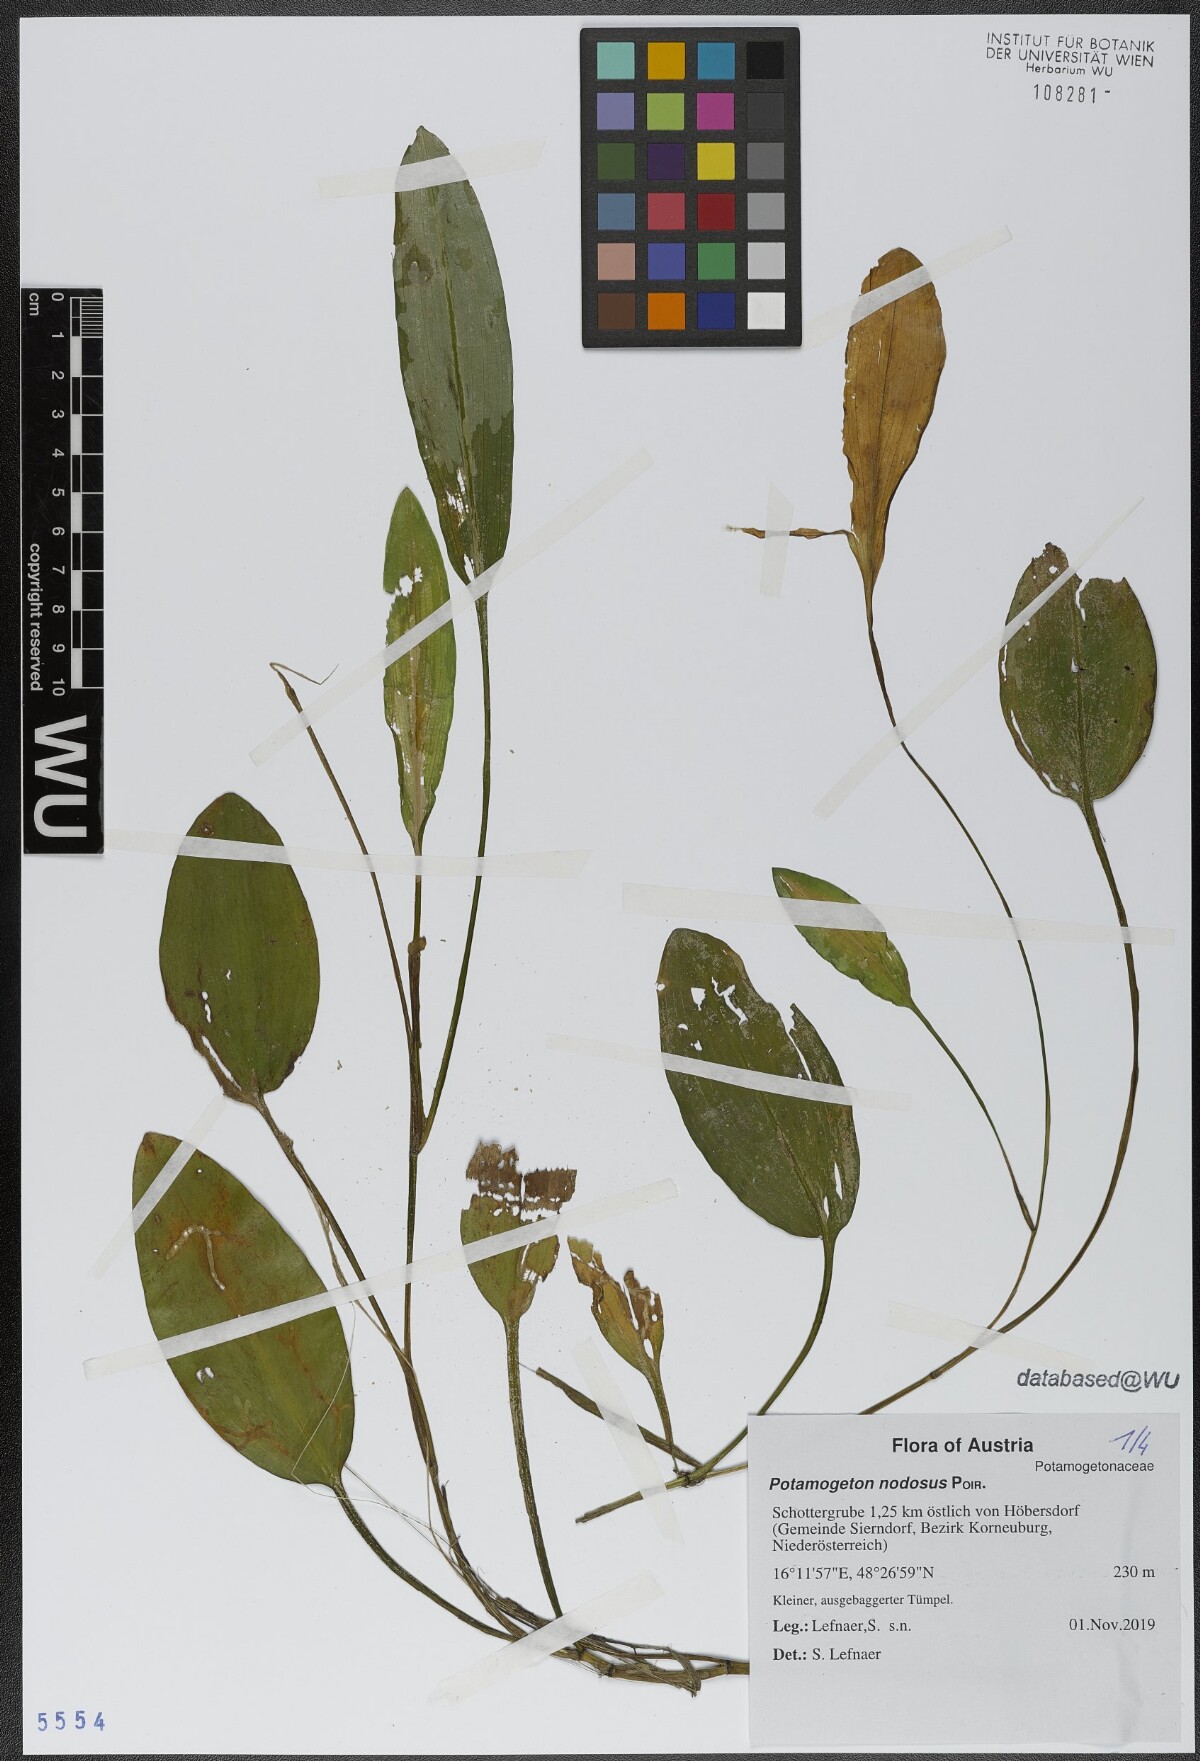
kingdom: Plantae
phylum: Tracheophyta
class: Liliopsida
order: Alismatales
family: Potamogetonaceae
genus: Potamogeton
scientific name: Potamogeton nodosus
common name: Loddon pondweed
